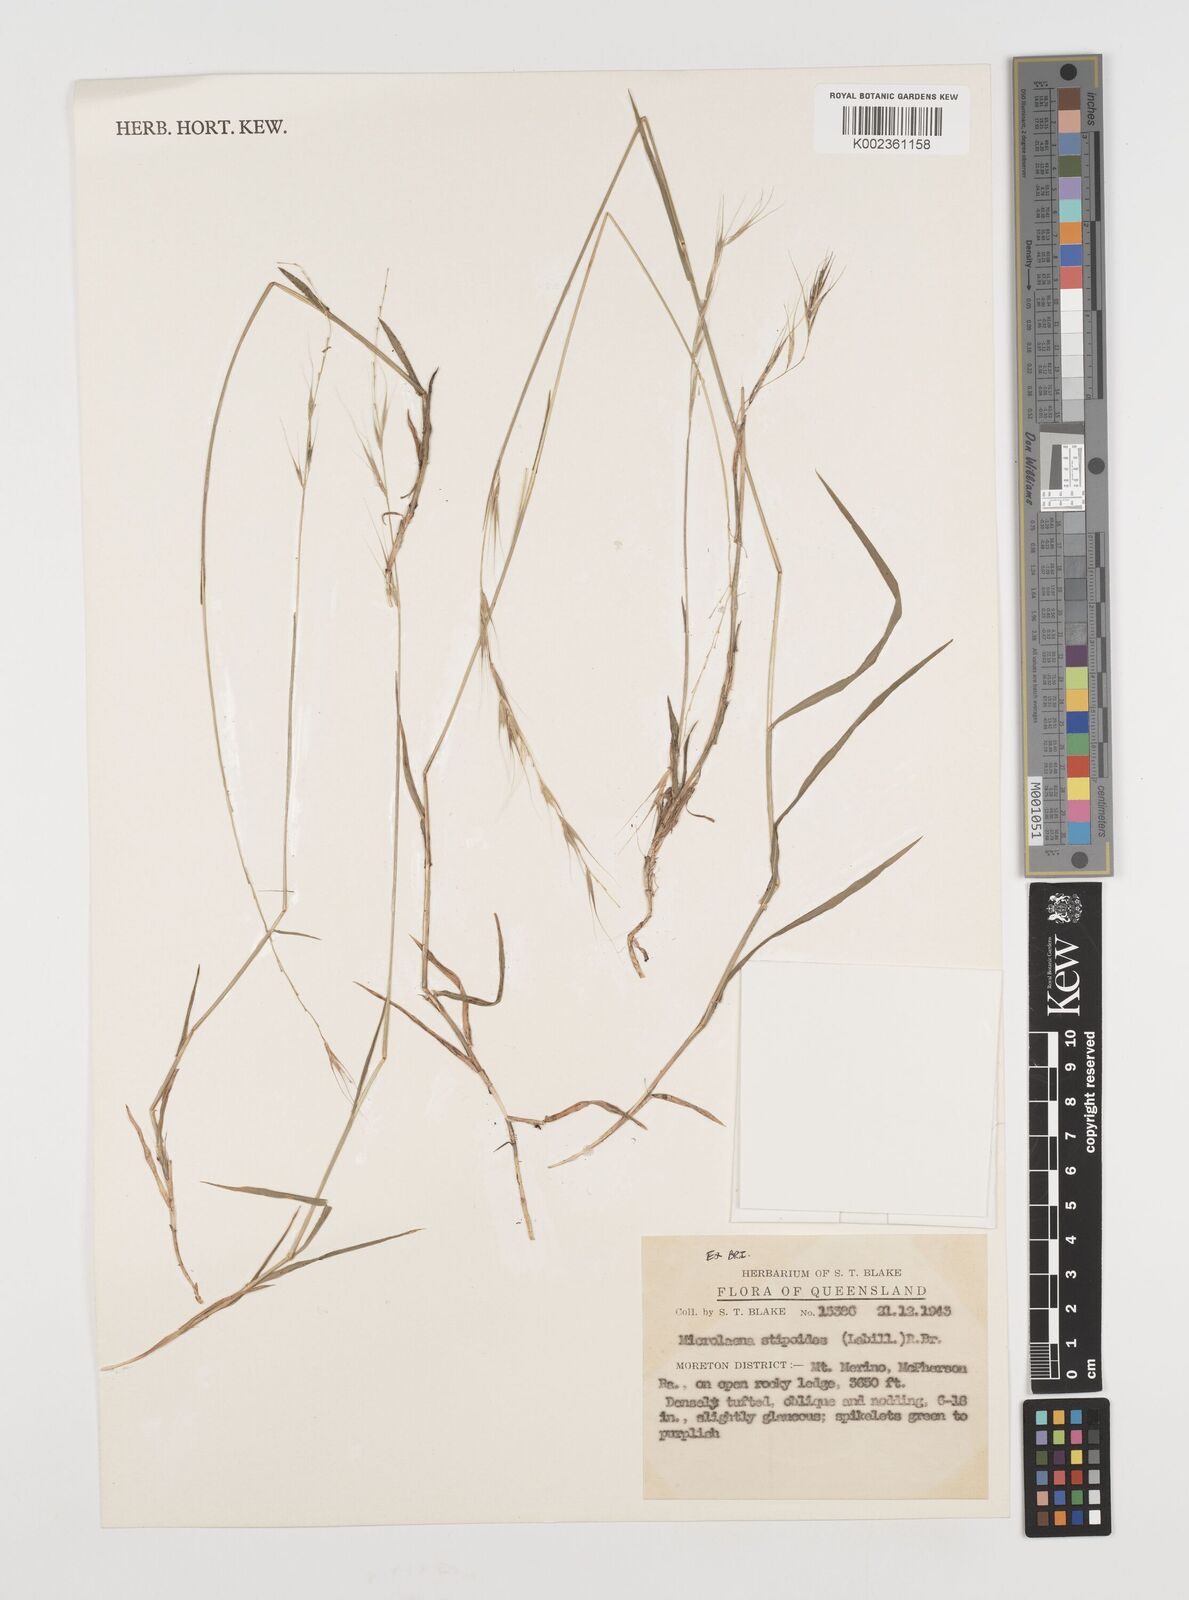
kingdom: Plantae
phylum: Tracheophyta
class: Liliopsida
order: Poales
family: Poaceae
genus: Microlaena
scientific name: Microlaena stipoides
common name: Meadow ricegrass
